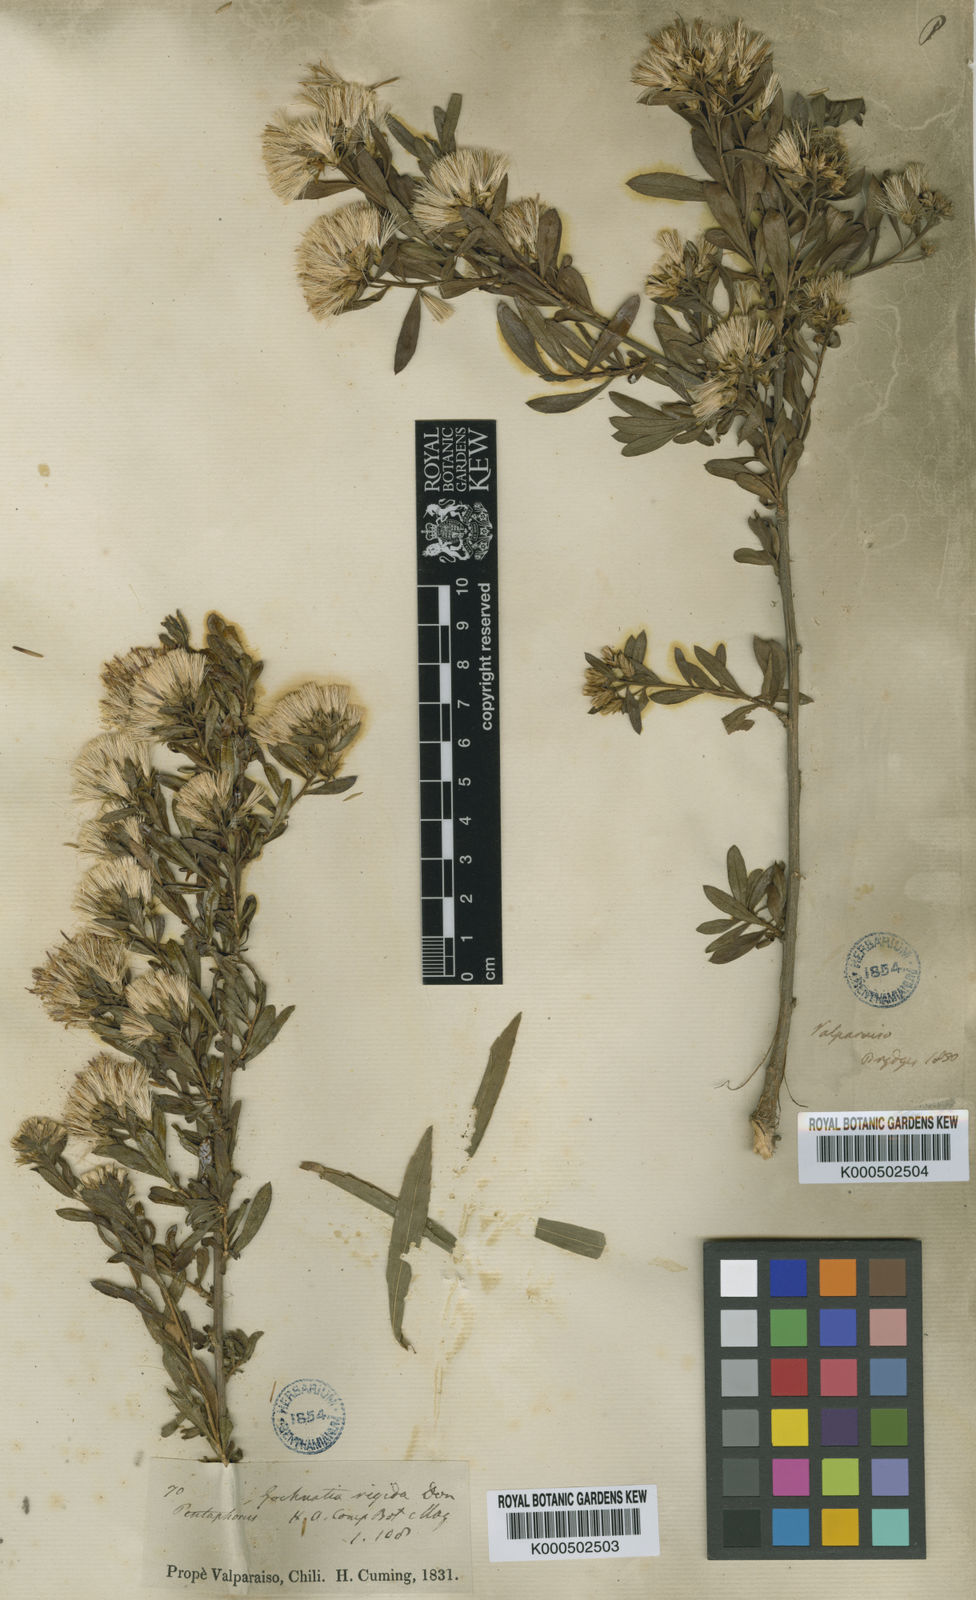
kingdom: Plantae
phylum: Tracheophyta
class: Magnoliopsida
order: Asterales
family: Asteraceae
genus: Gochnatia
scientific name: Gochnatia foliolosa
